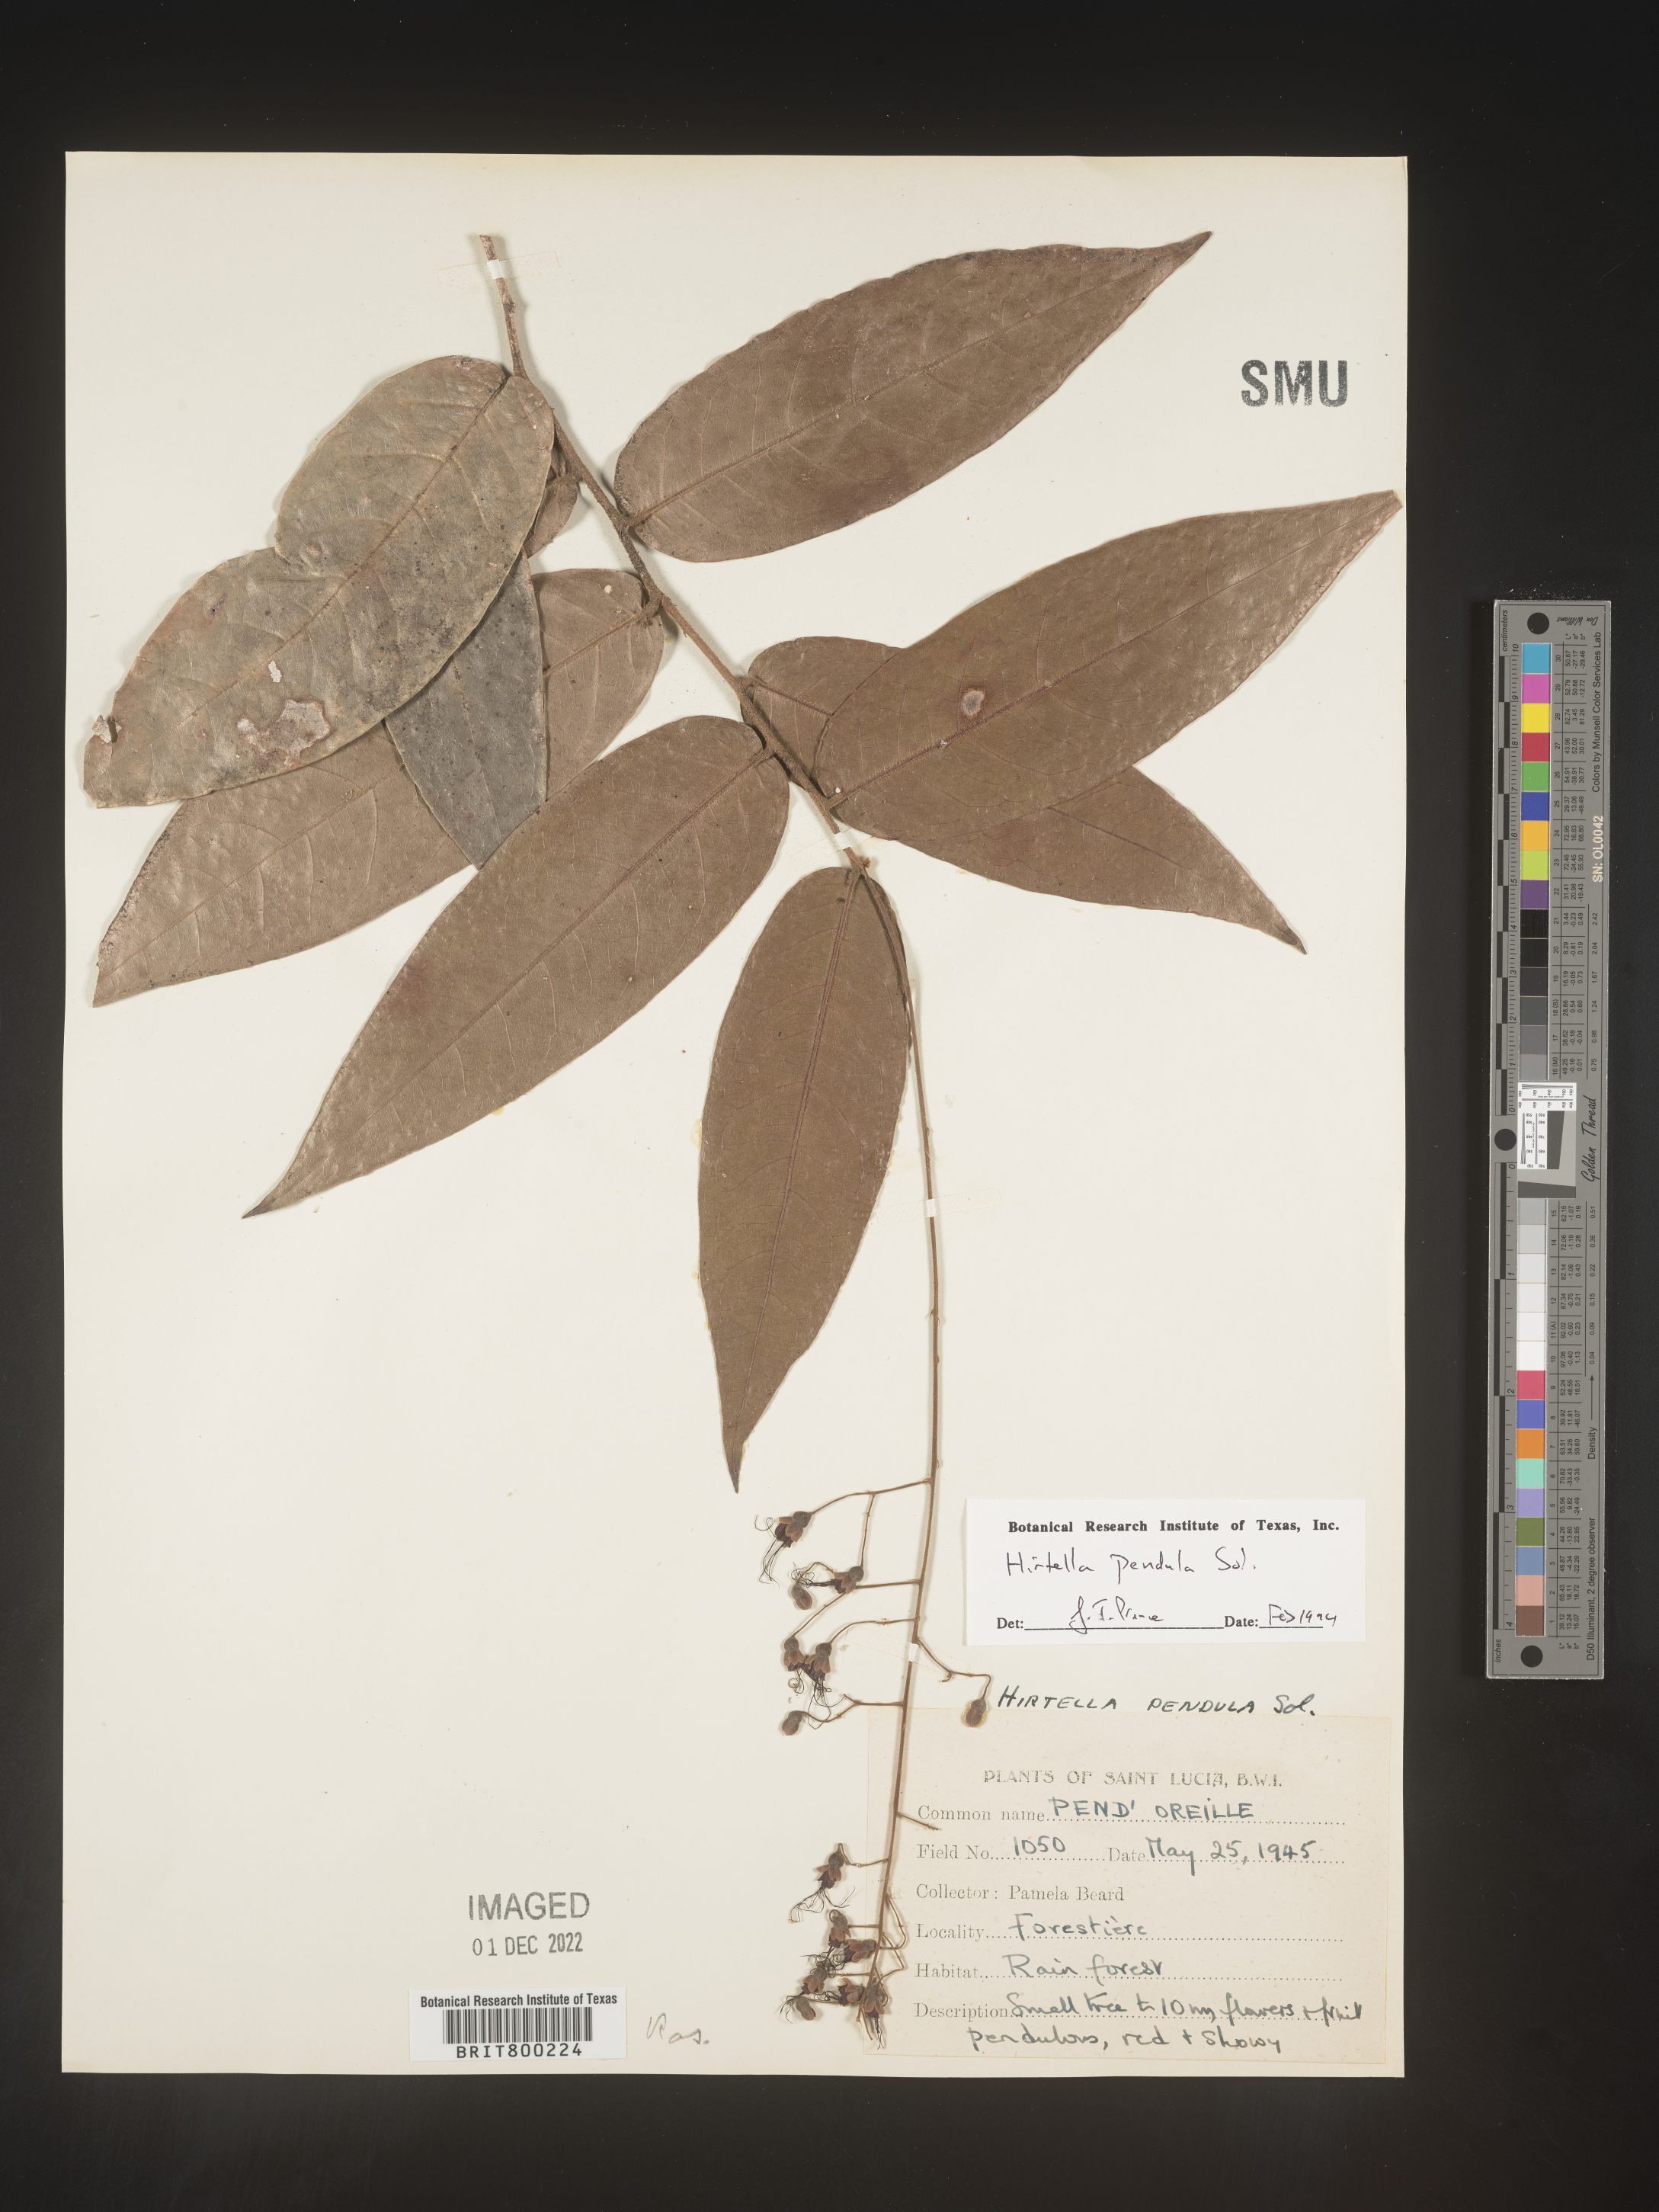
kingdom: Plantae
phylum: Tracheophyta
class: Magnoliopsida
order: Malpighiales
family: Chrysobalanaceae
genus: Hirtella
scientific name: Hirtella
